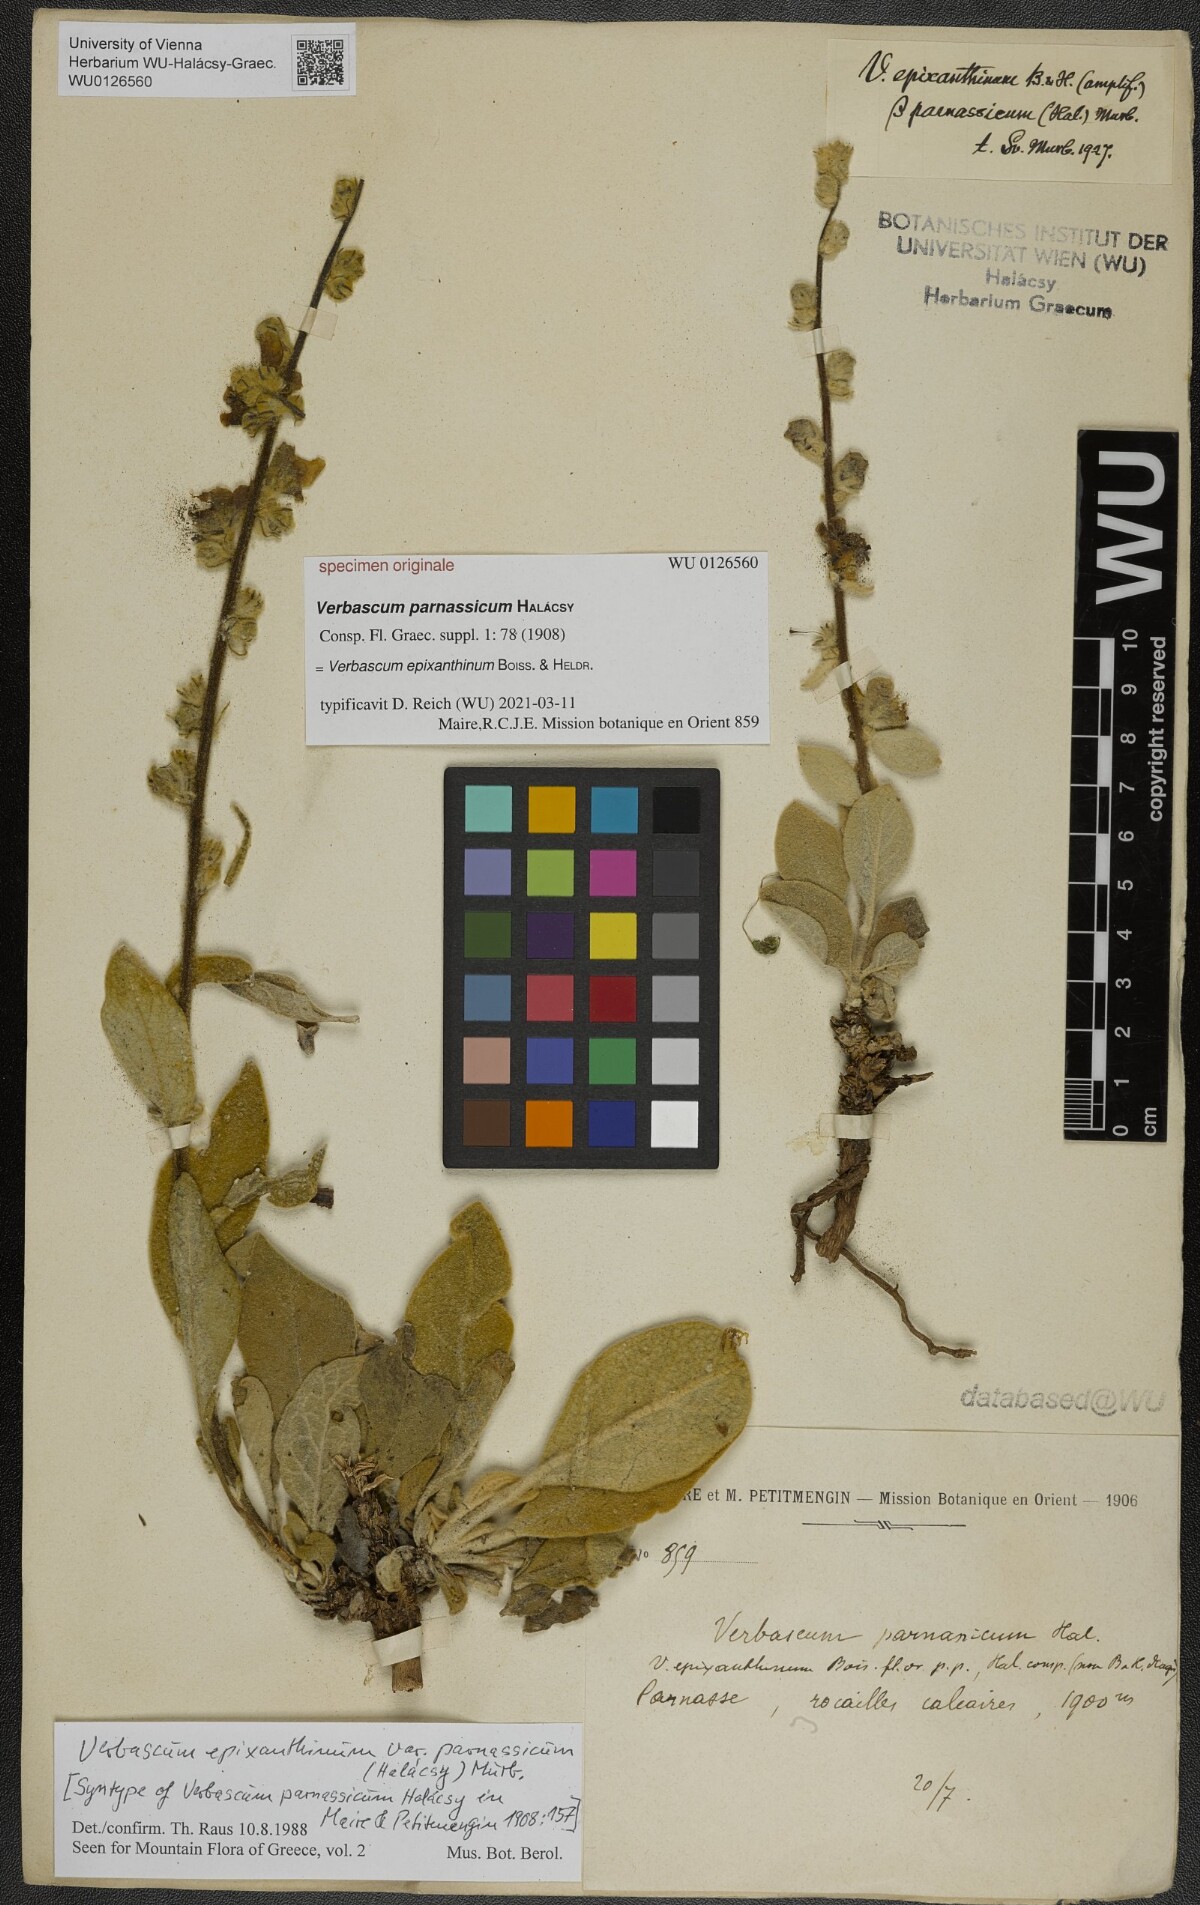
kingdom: Plantae
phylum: Tracheophyta
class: Magnoliopsida
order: Lamiales
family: Scrophulariaceae
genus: Verbascum
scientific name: Verbascum epixanthinum
